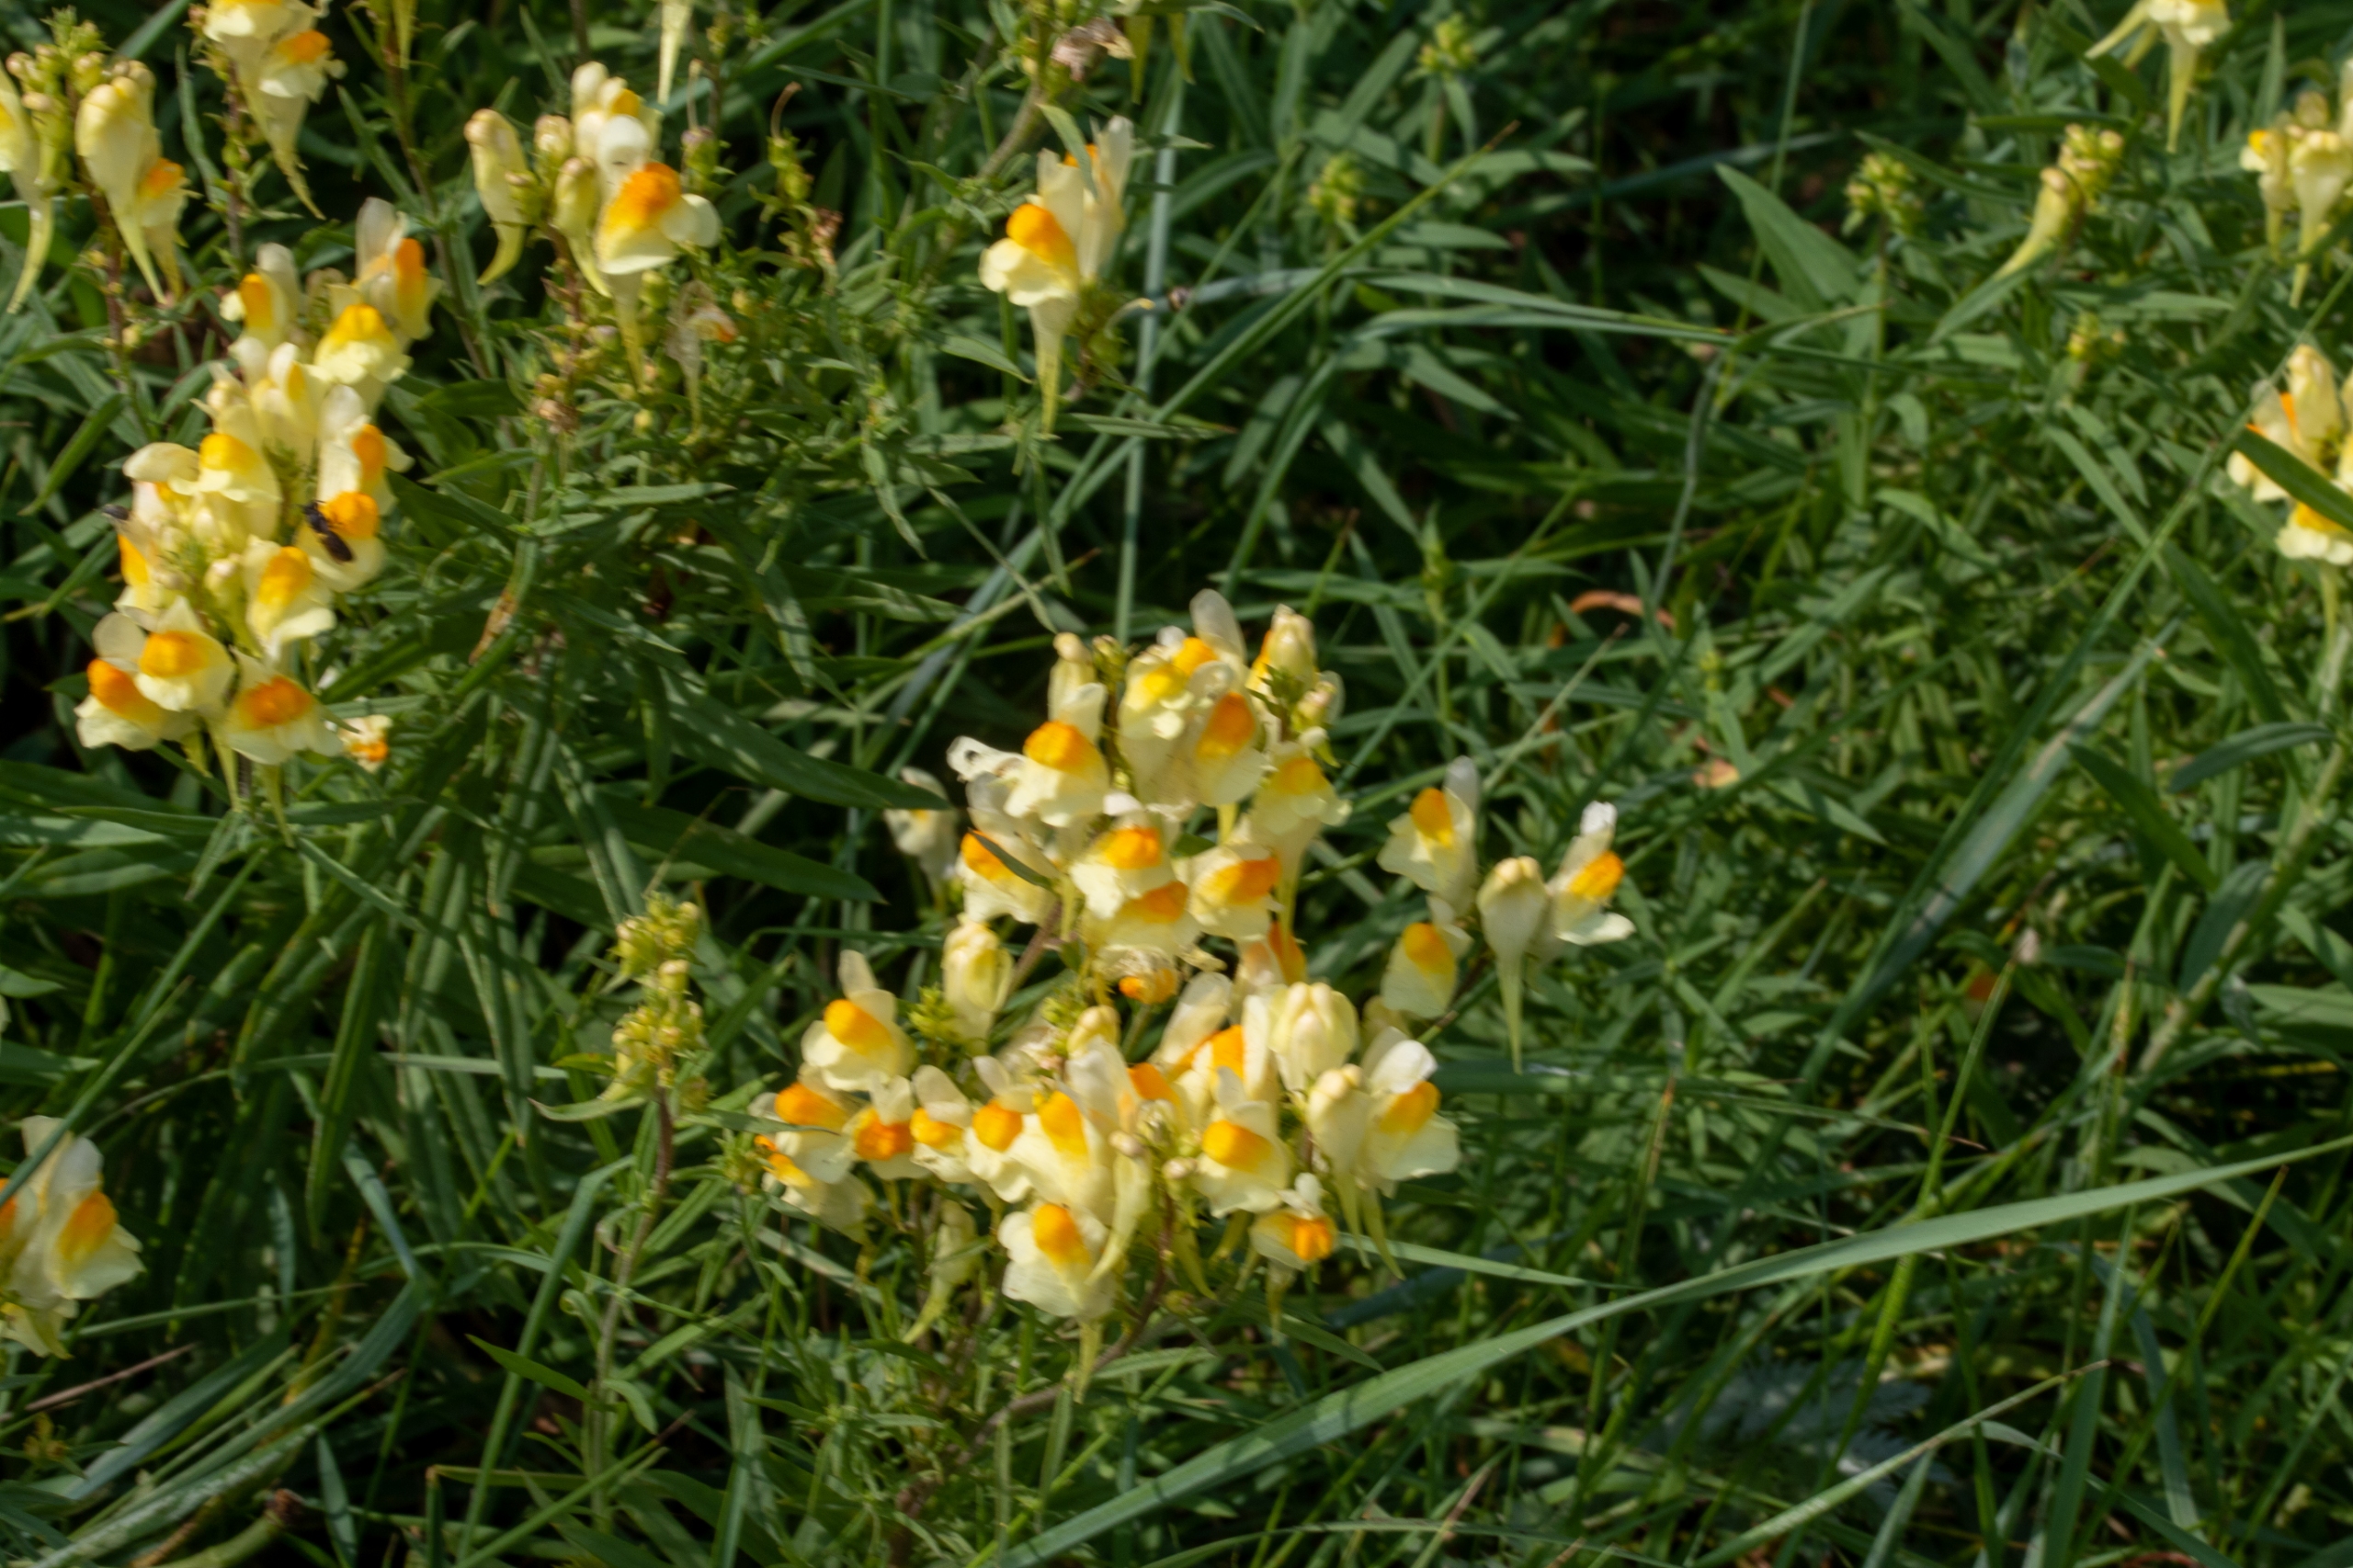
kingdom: Plantae
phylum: Tracheophyta
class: Magnoliopsida
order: Lamiales
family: Plantaginaceae
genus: Linaria
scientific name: Linaria vulgaris
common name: Almindelig torskemund
